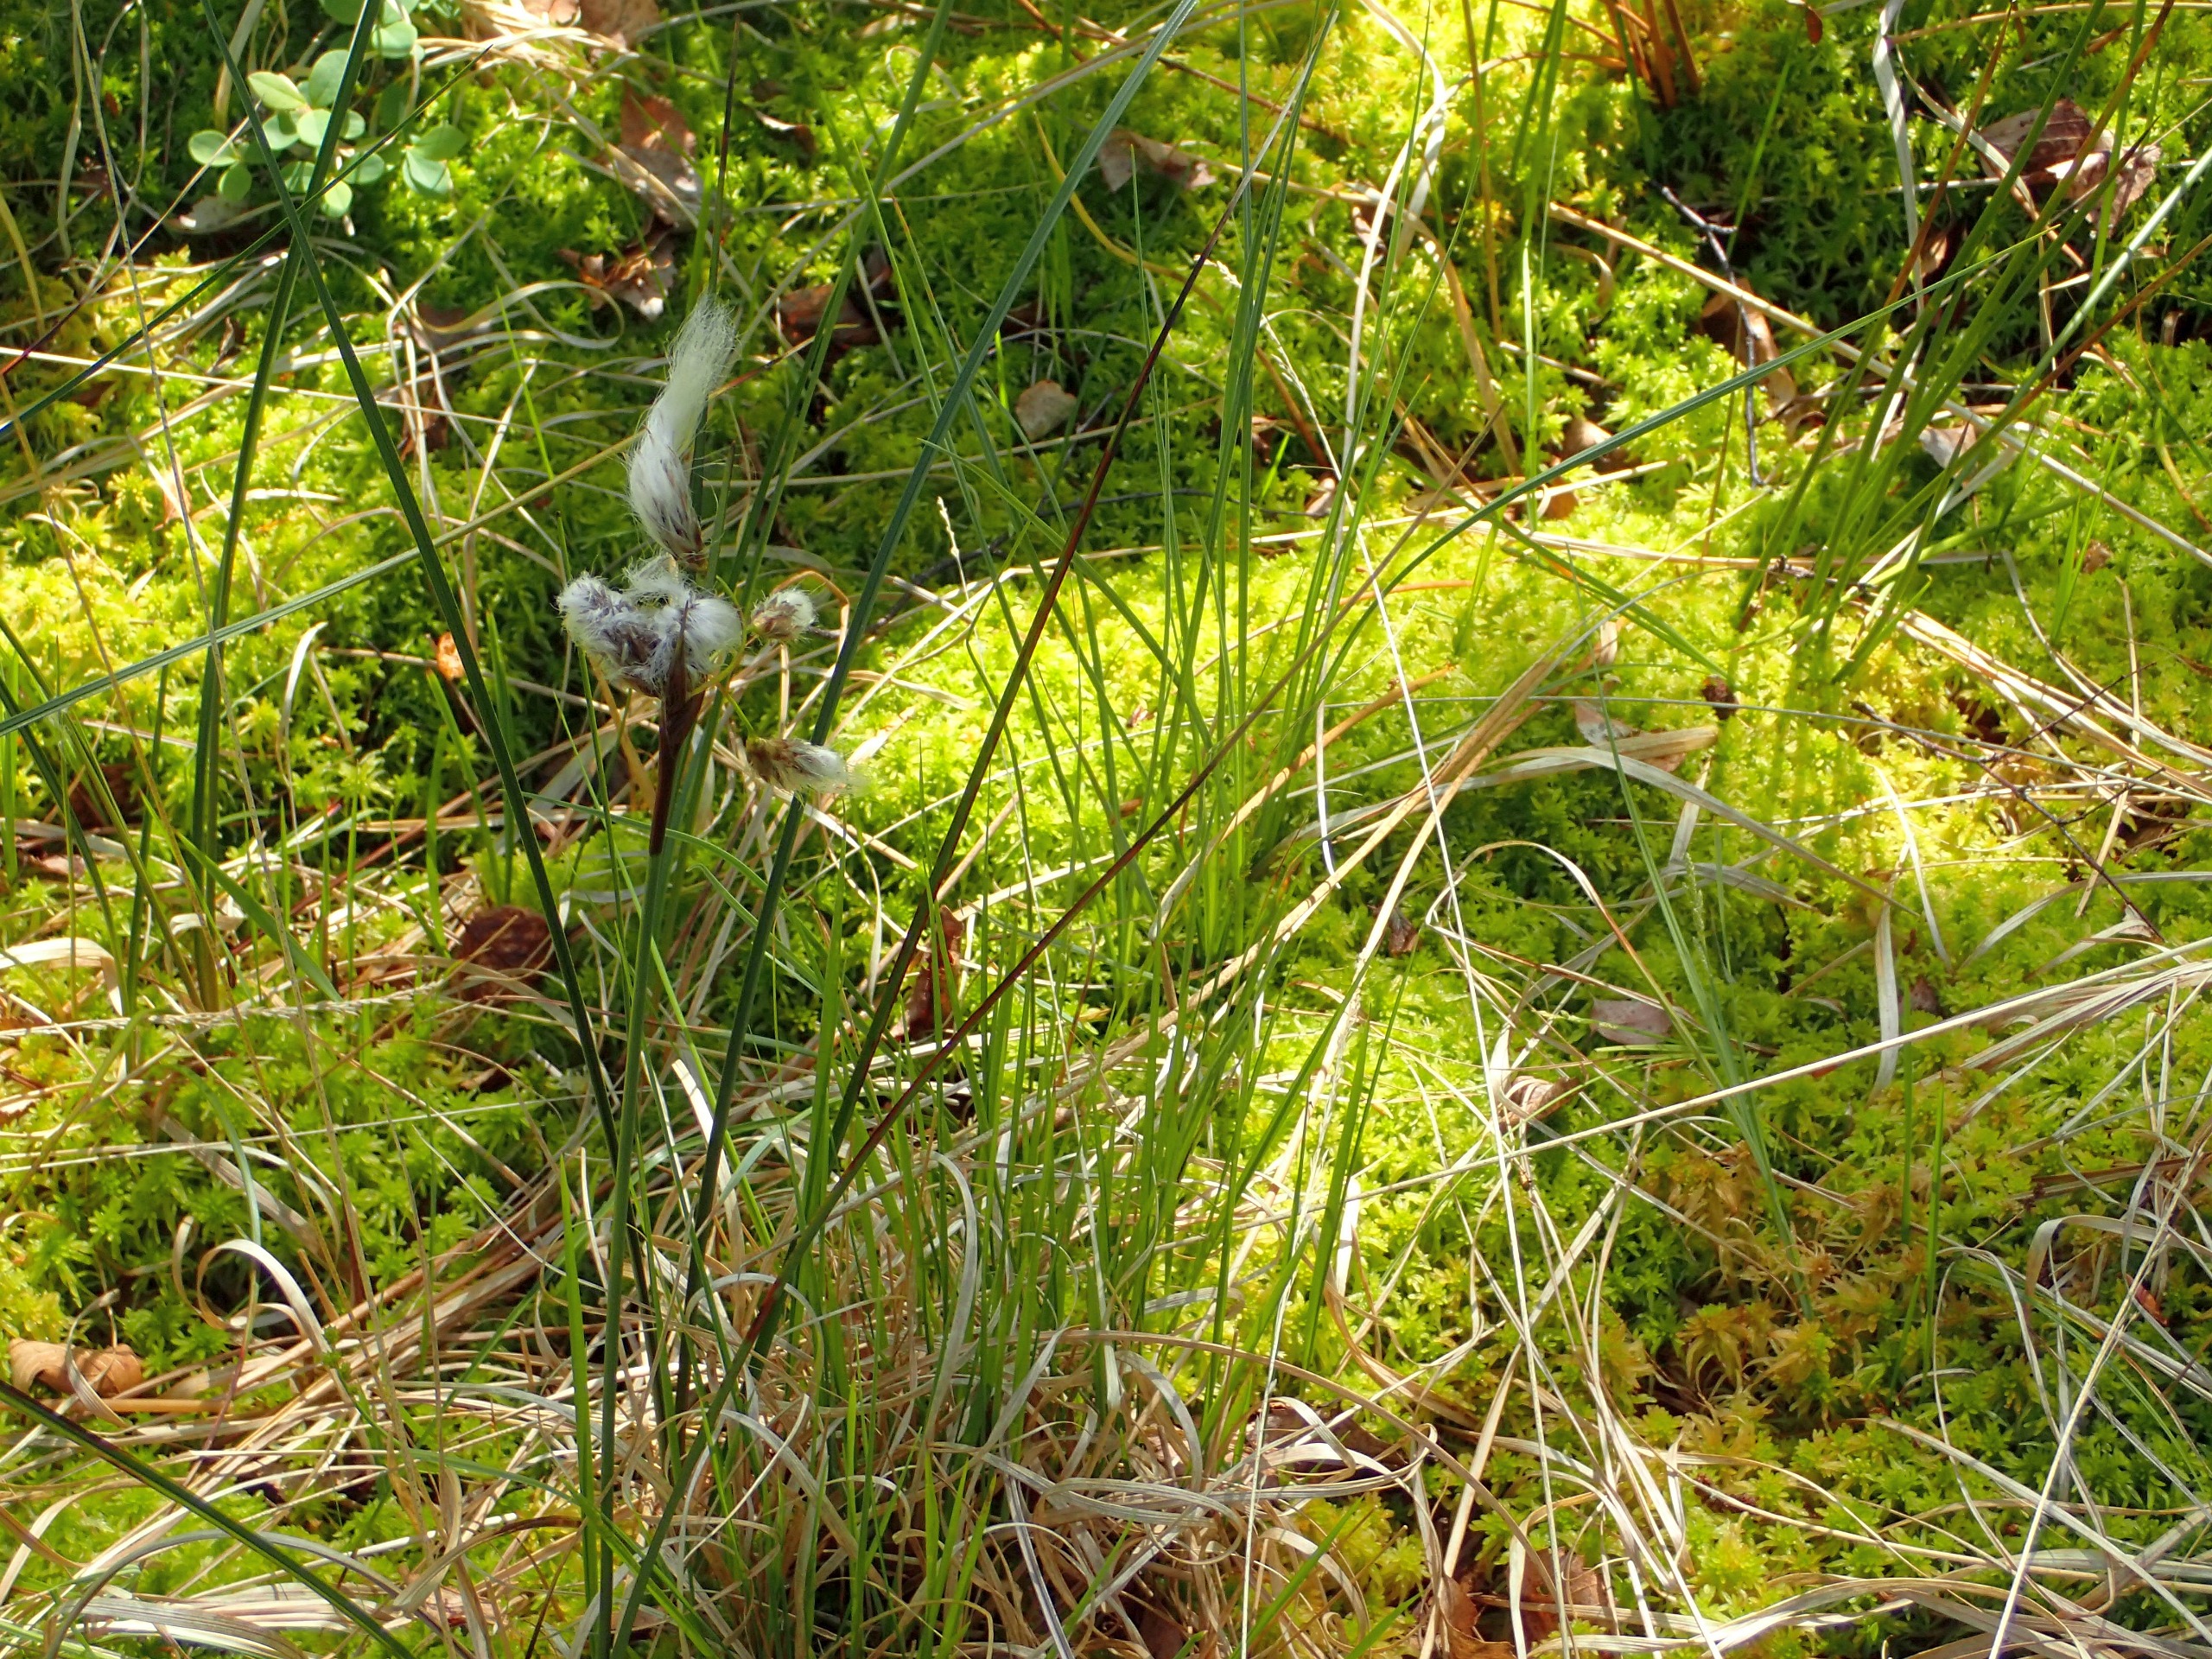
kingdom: Plantae
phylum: Tracheophyta
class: Liliopsida
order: Poales
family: Cyperaceae
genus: Eriophorum
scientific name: Eriophorum angustifolium
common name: Smalbladet kæruld
